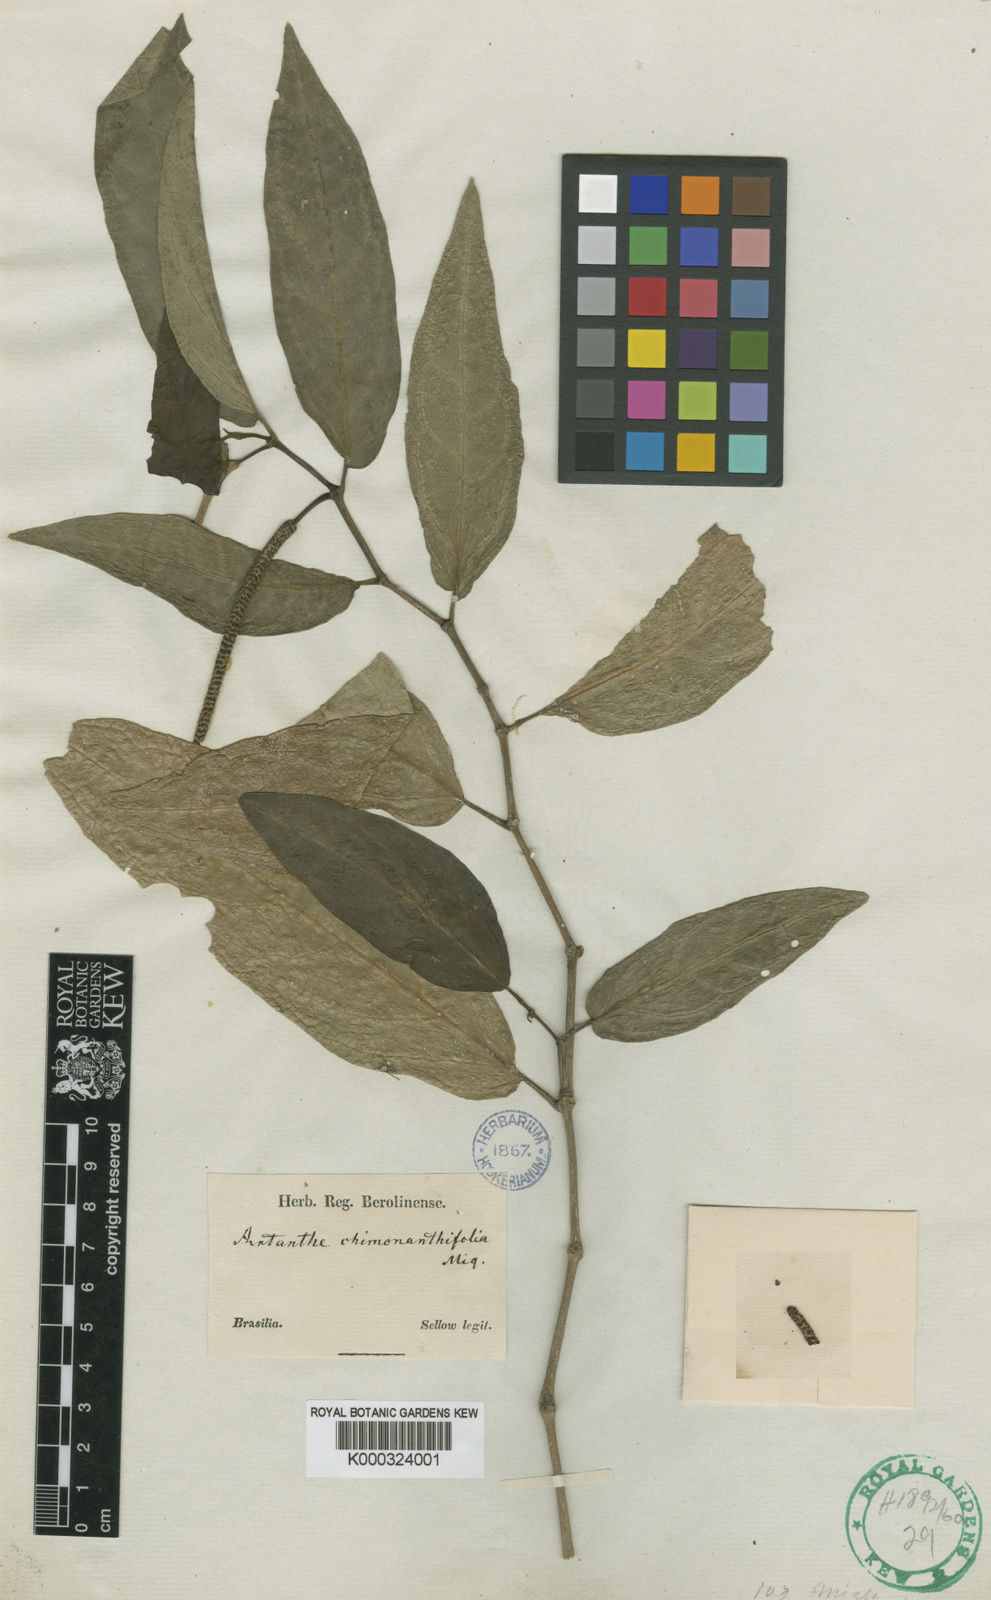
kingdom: Plantae
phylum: Tracheophyta
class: Magnoliopsida
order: Piperales
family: Piperaceae
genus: Piper
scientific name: Piper
